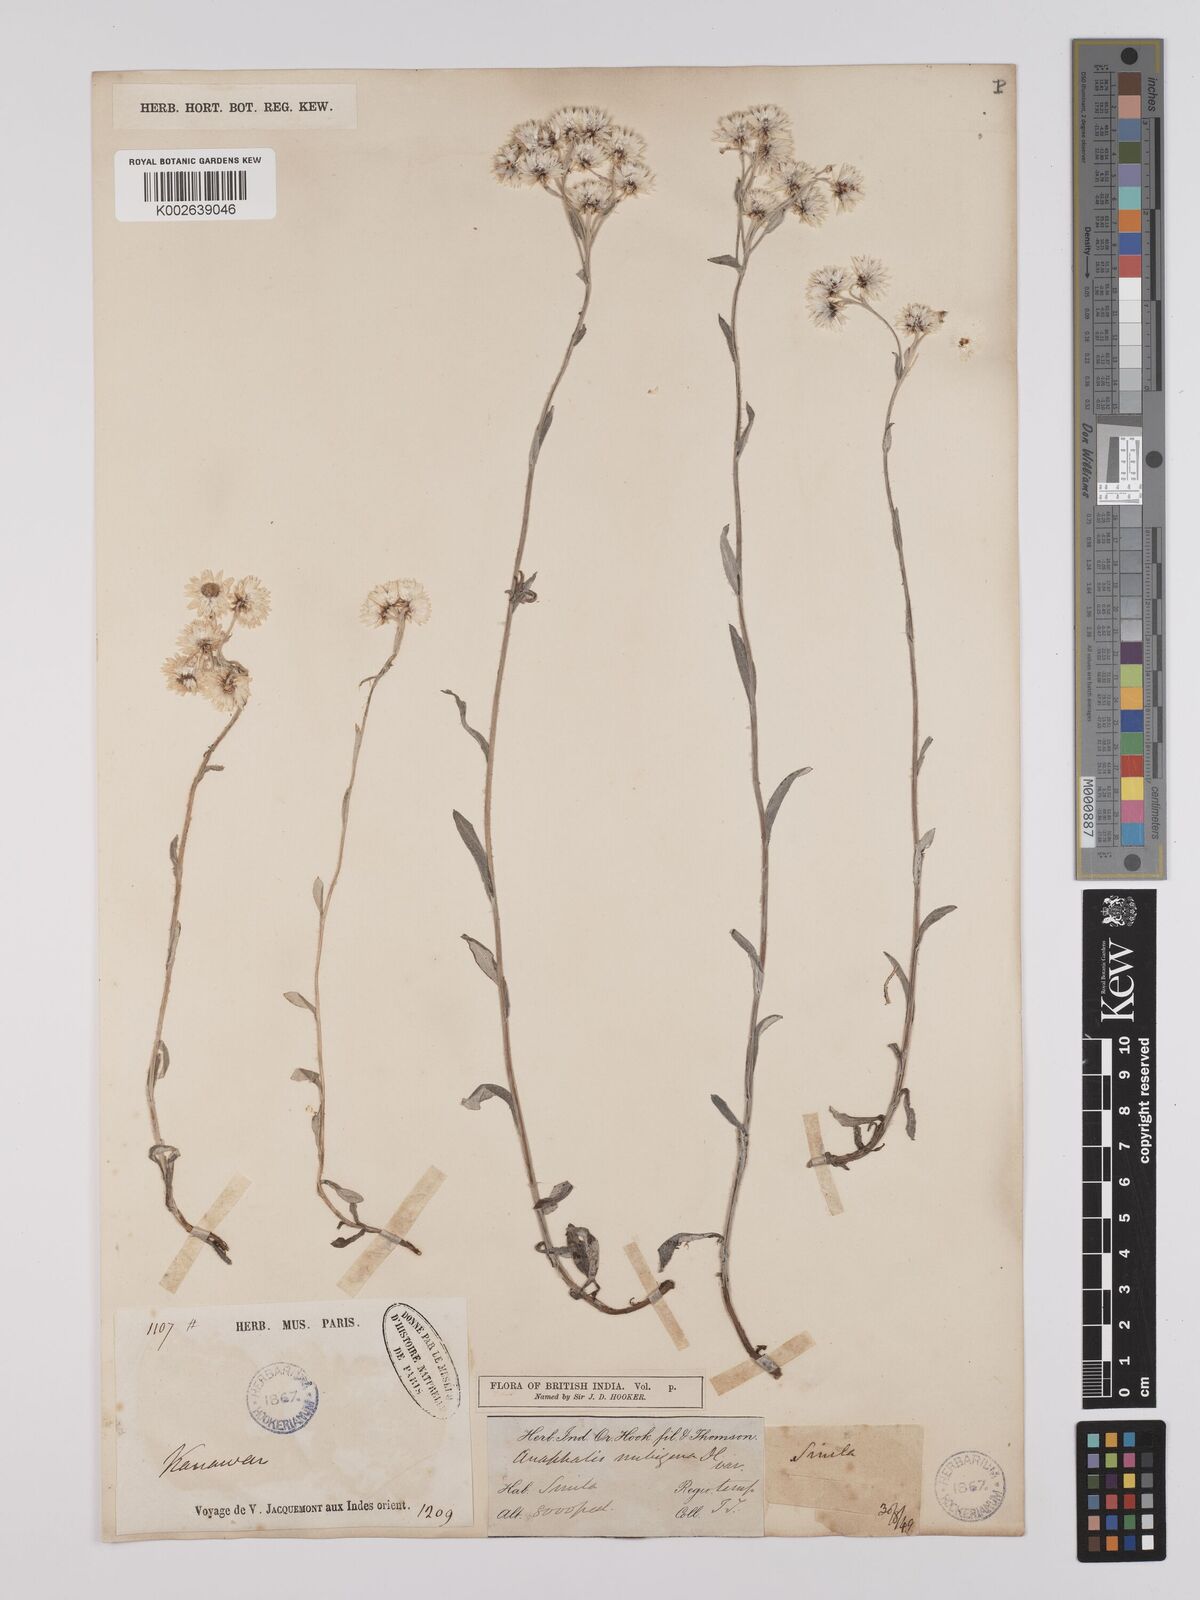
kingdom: Plantae
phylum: Tracheophyta
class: Magnoliopsida
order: Asterales
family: Asteraceae
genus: Anaphalioides
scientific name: Anaphalioides trinervis
